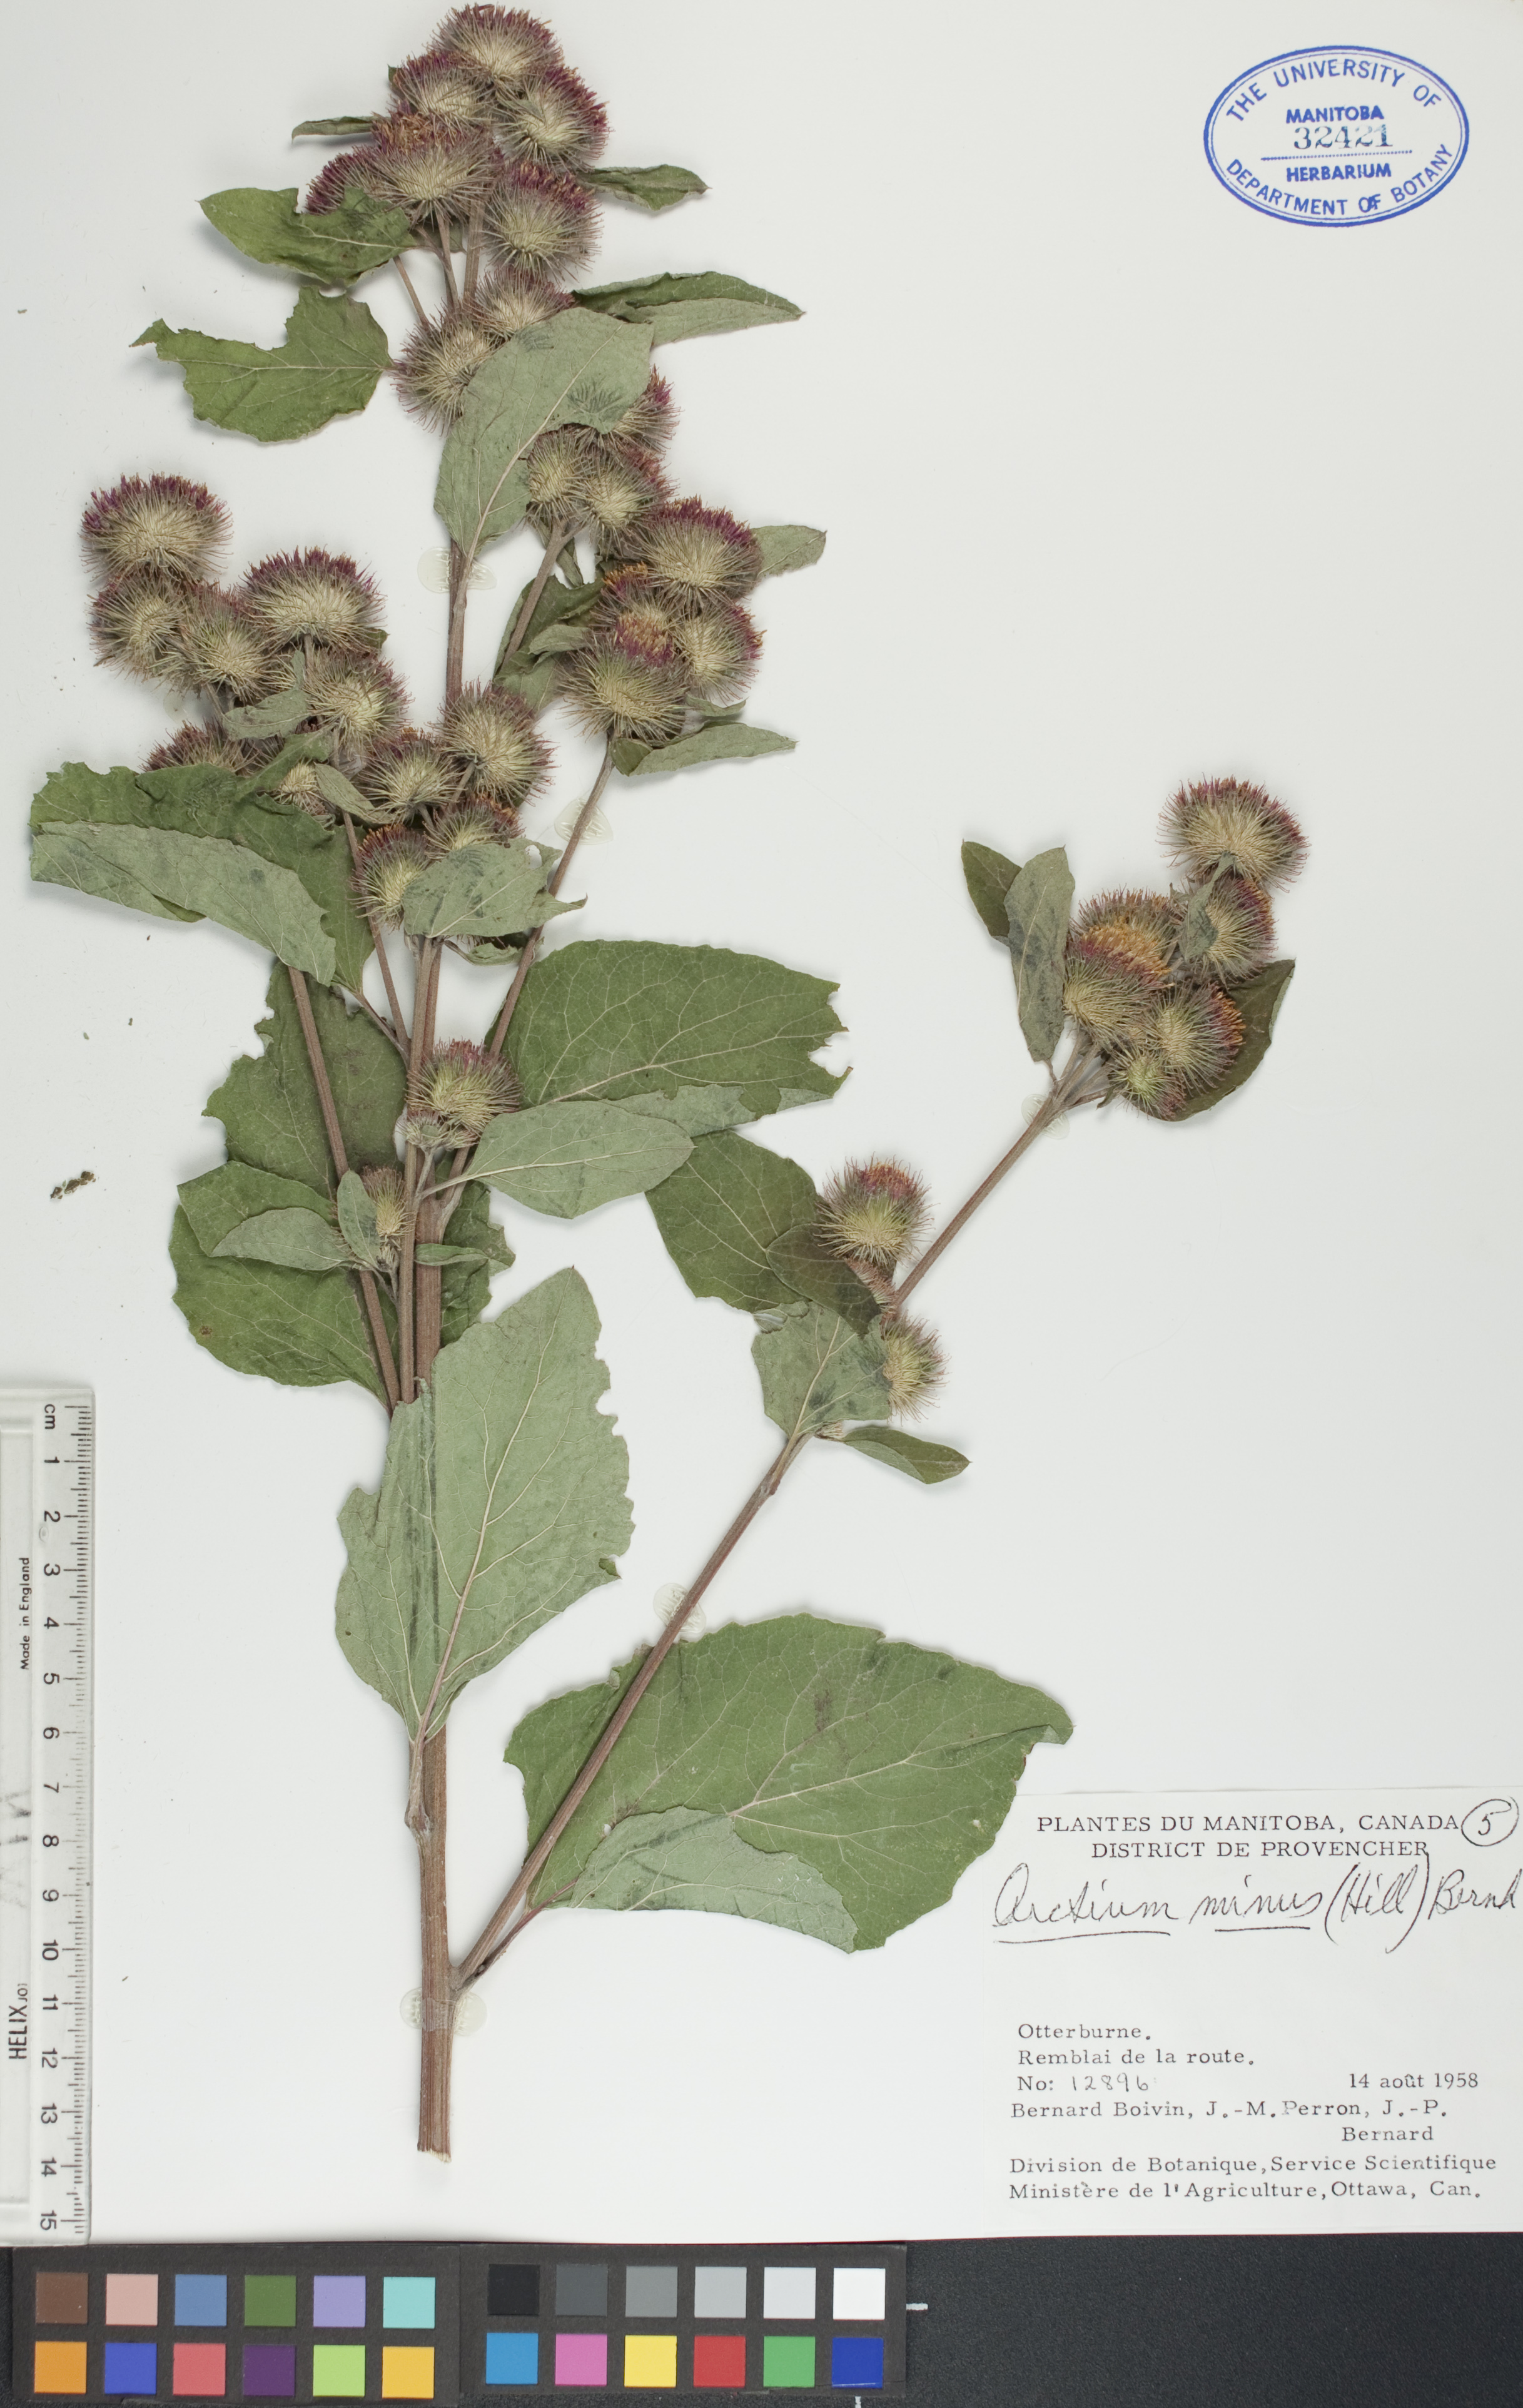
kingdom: Plantae
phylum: Tracheophyta
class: Magnoliopsida
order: Asterales
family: Asteraceae
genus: Arctium
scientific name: Arctium minus
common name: Lesser burdock
